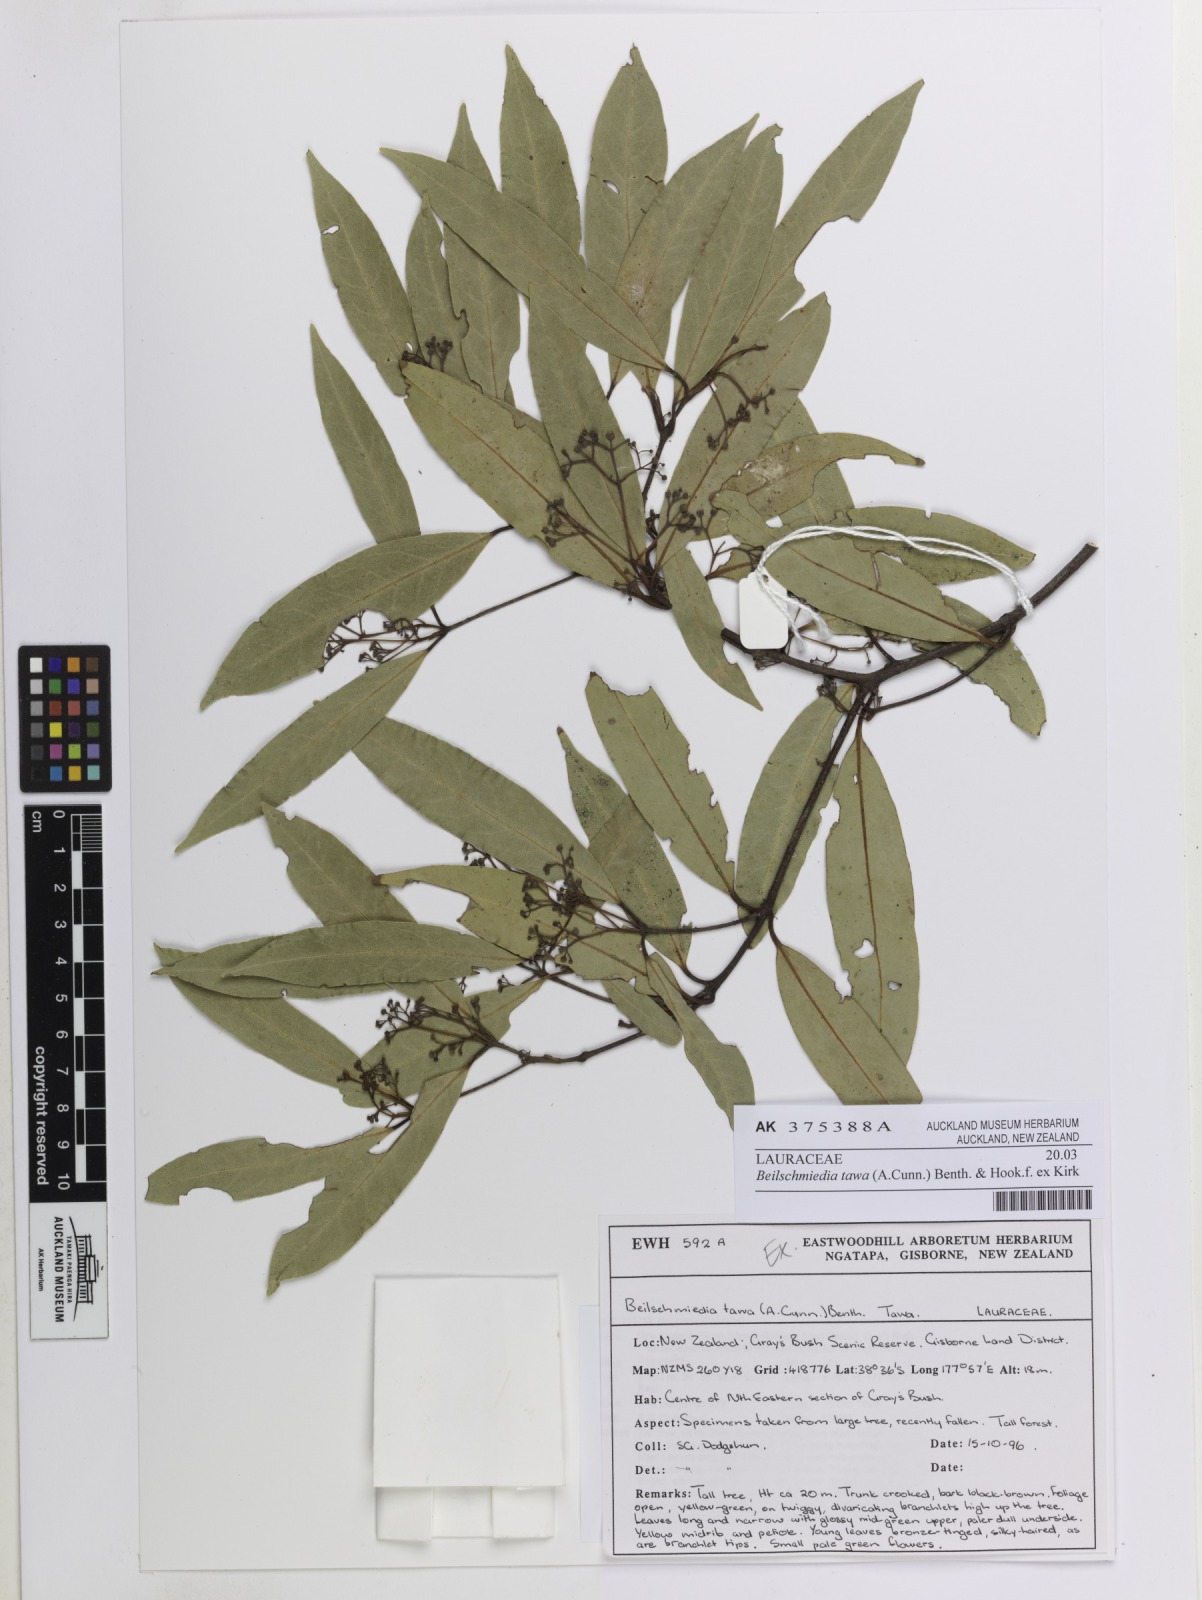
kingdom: Plantae
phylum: Tracheophyta
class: Magnoliopsida
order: Laurales
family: Lauraceae
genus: Beilschmiedia
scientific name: Beilschmiedia tawa
